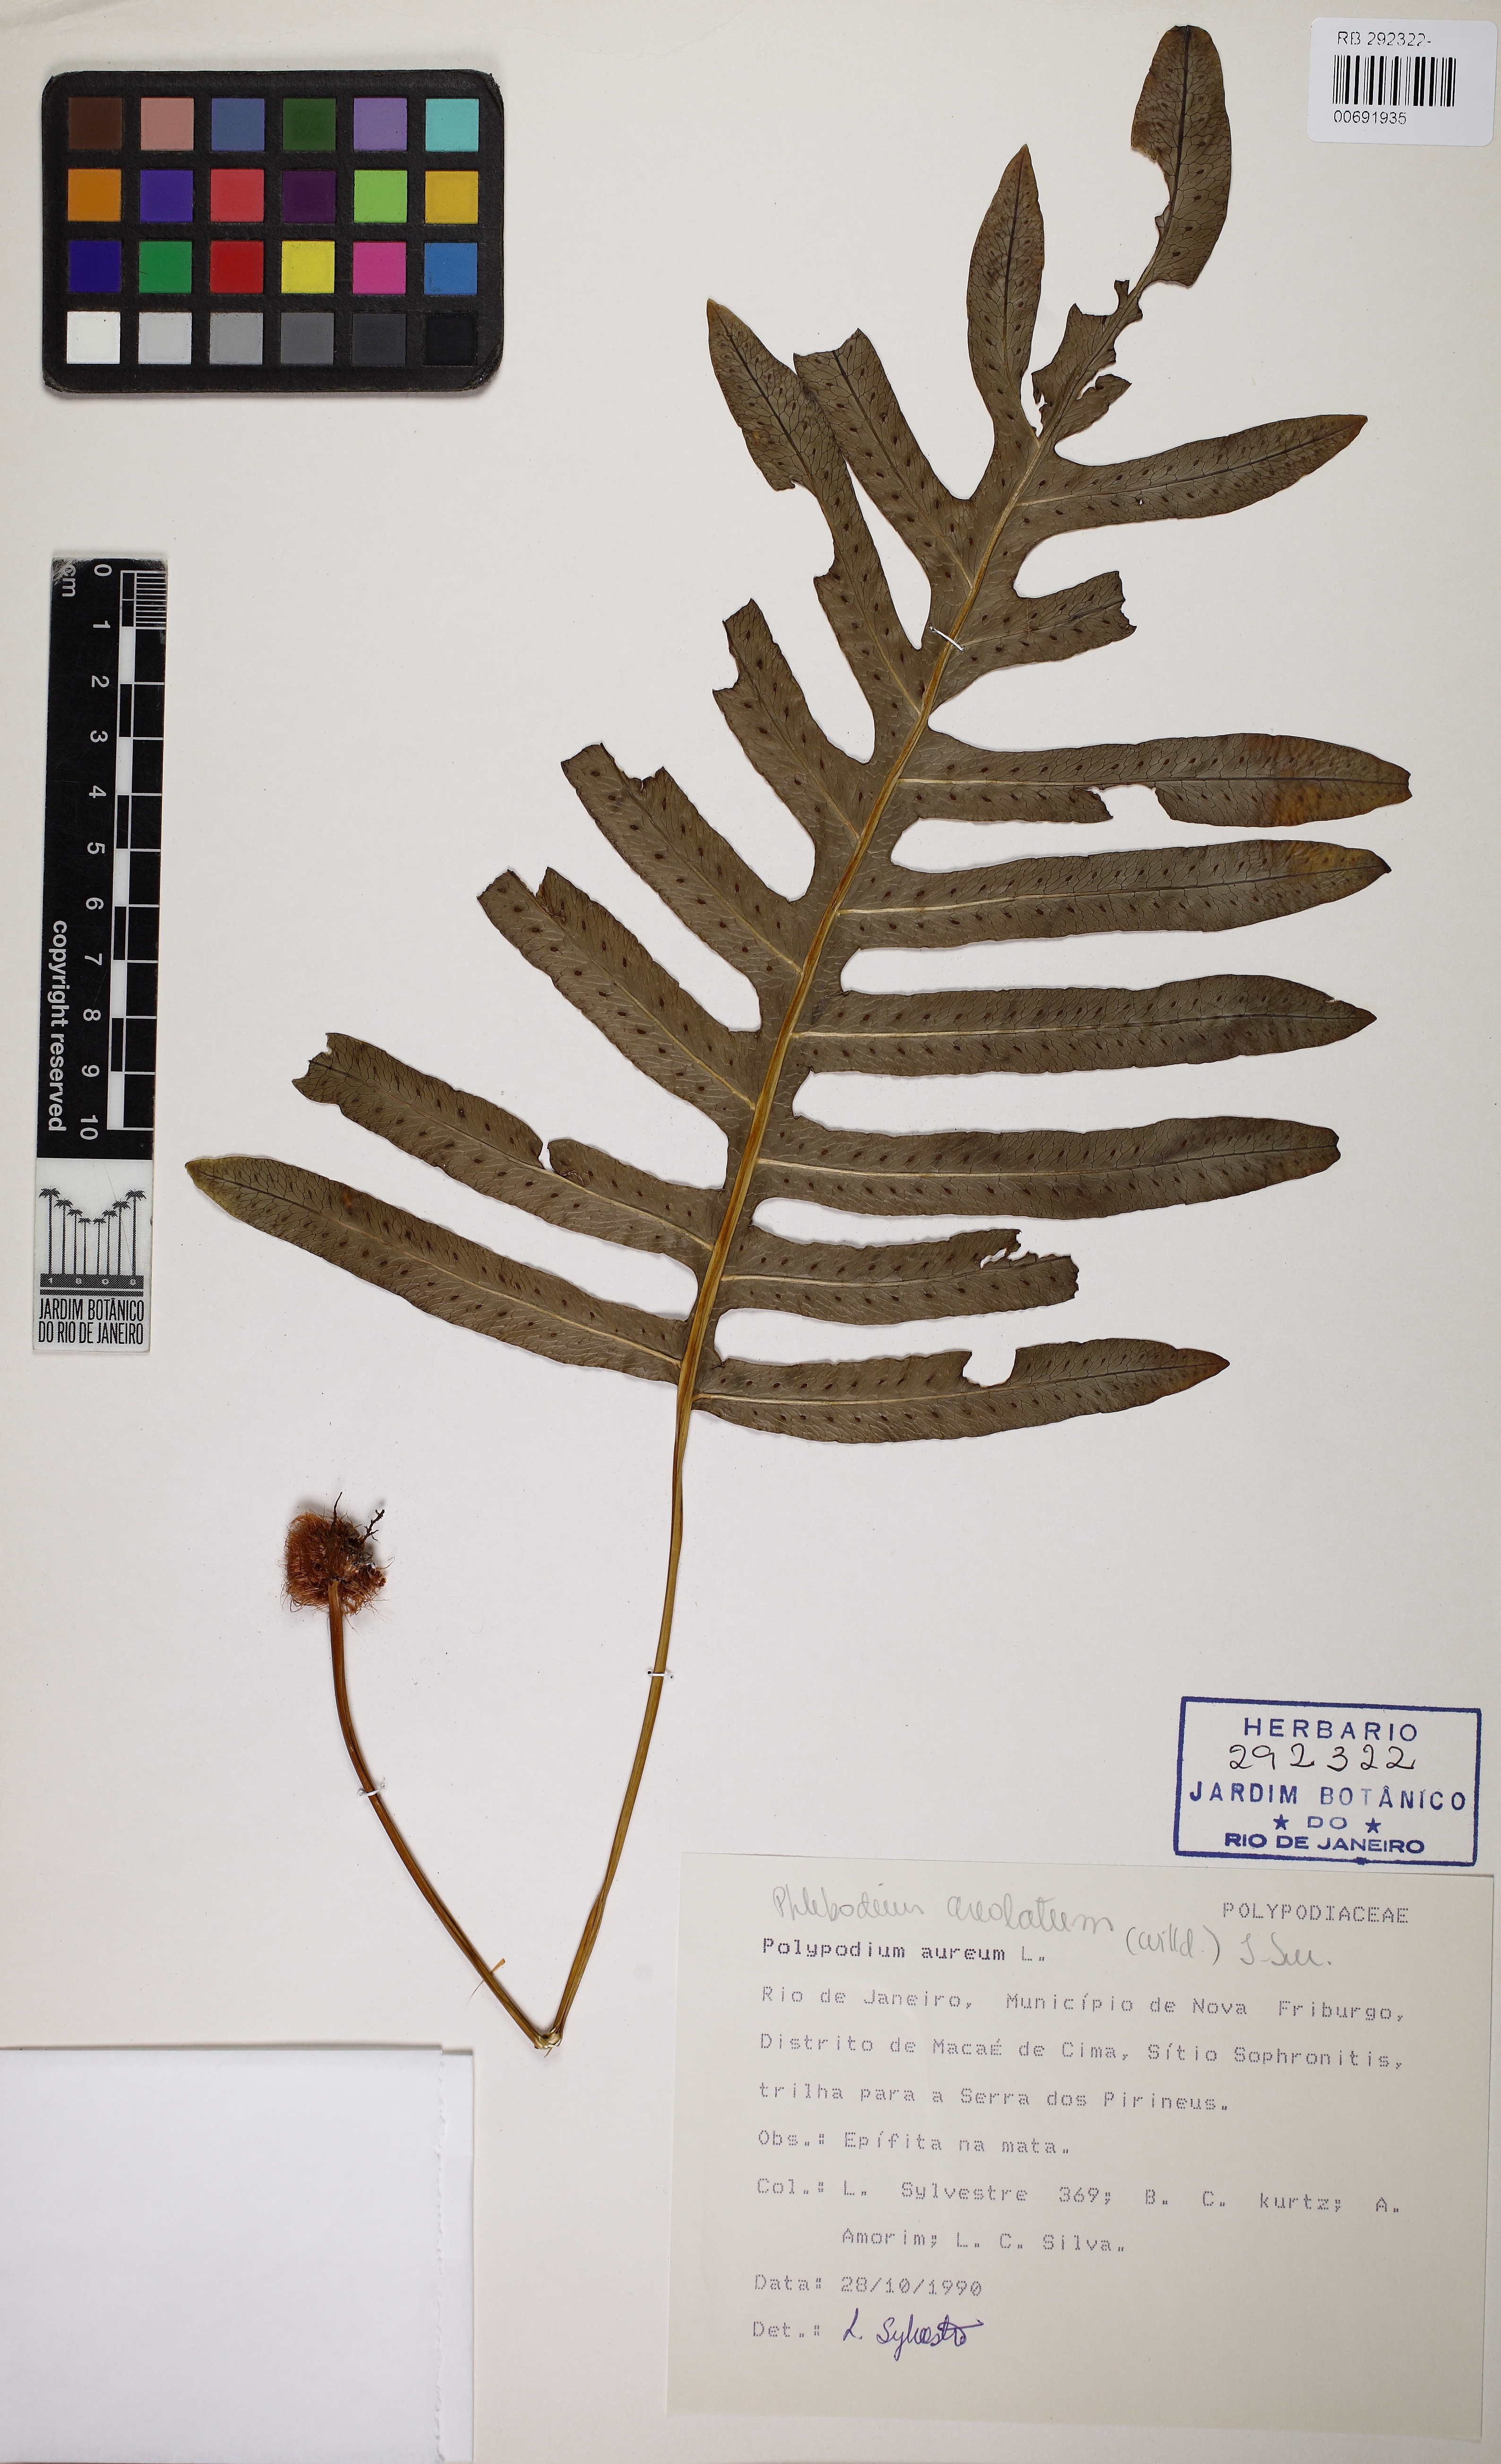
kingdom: Plantae
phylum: Tracheophyta
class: Polypodiopsida
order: Polypodiales
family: Polypodiaceae
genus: Phlebodium
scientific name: Phlebodium pseudoaureum
